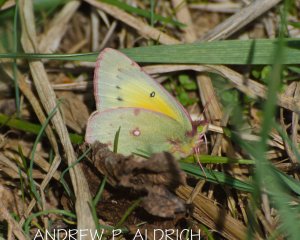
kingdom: Animalia
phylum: Arthropoda
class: Insecta
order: Lepidoptera
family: Pieridae
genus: Colias
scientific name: Colias eurytheme
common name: Orange Sulphur
